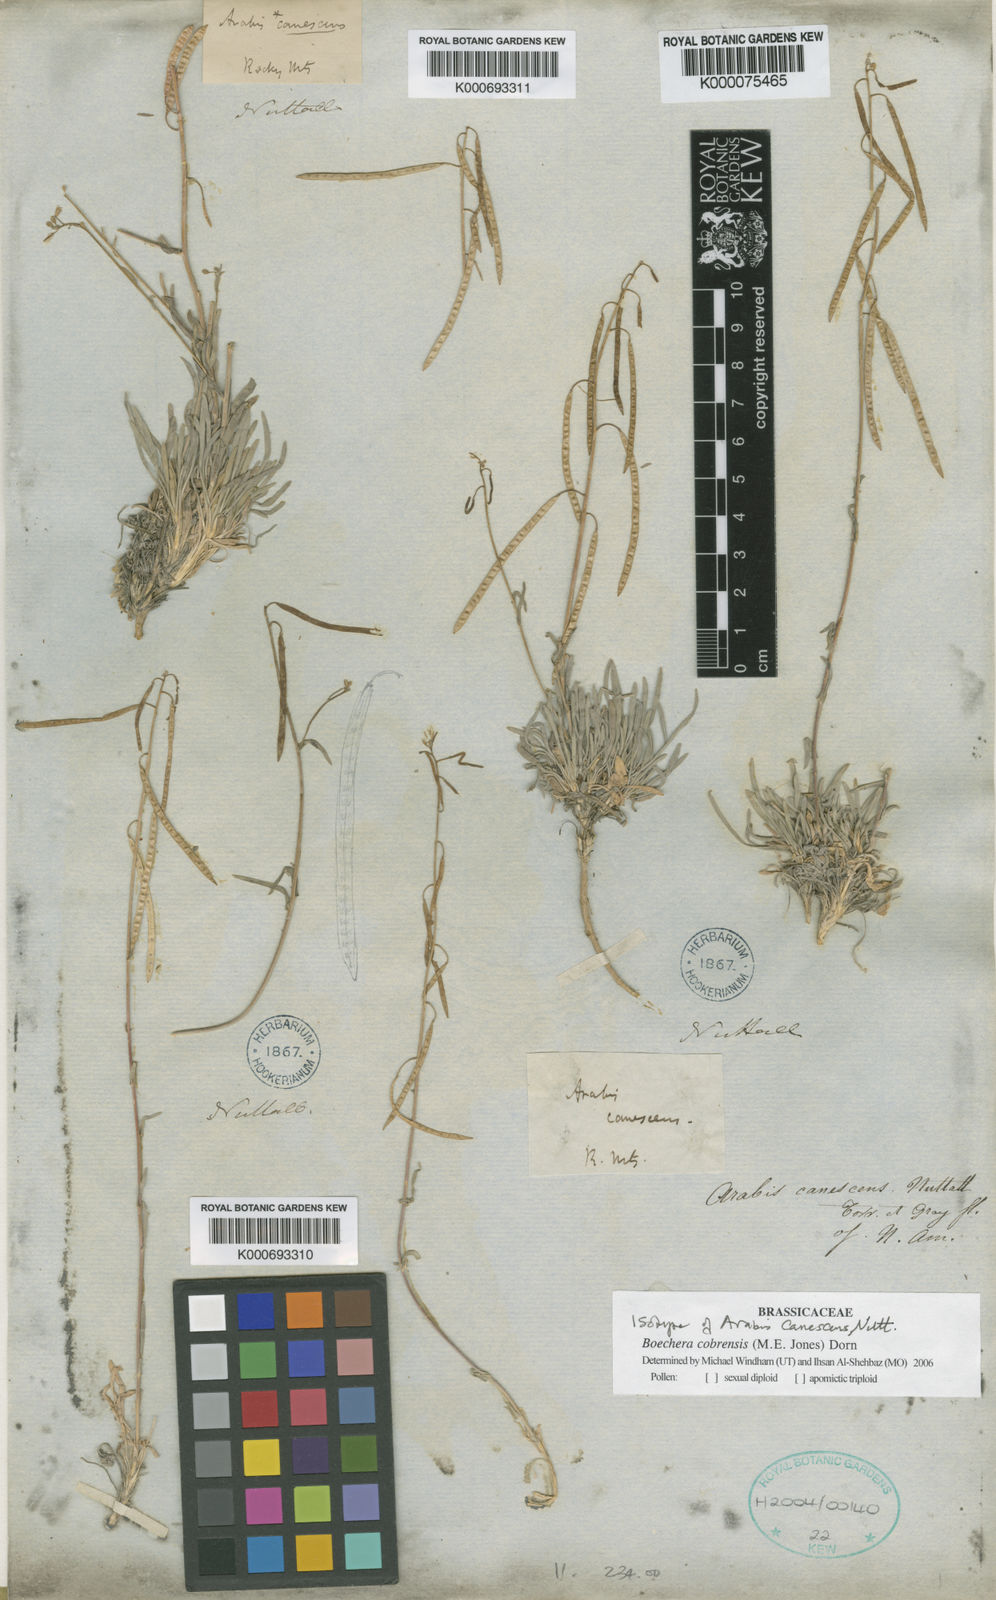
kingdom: Plantae
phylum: Tracheophyta
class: Magnoliopsida
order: Brassicales
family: Brassicaceae
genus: Arabis
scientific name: Arabis
